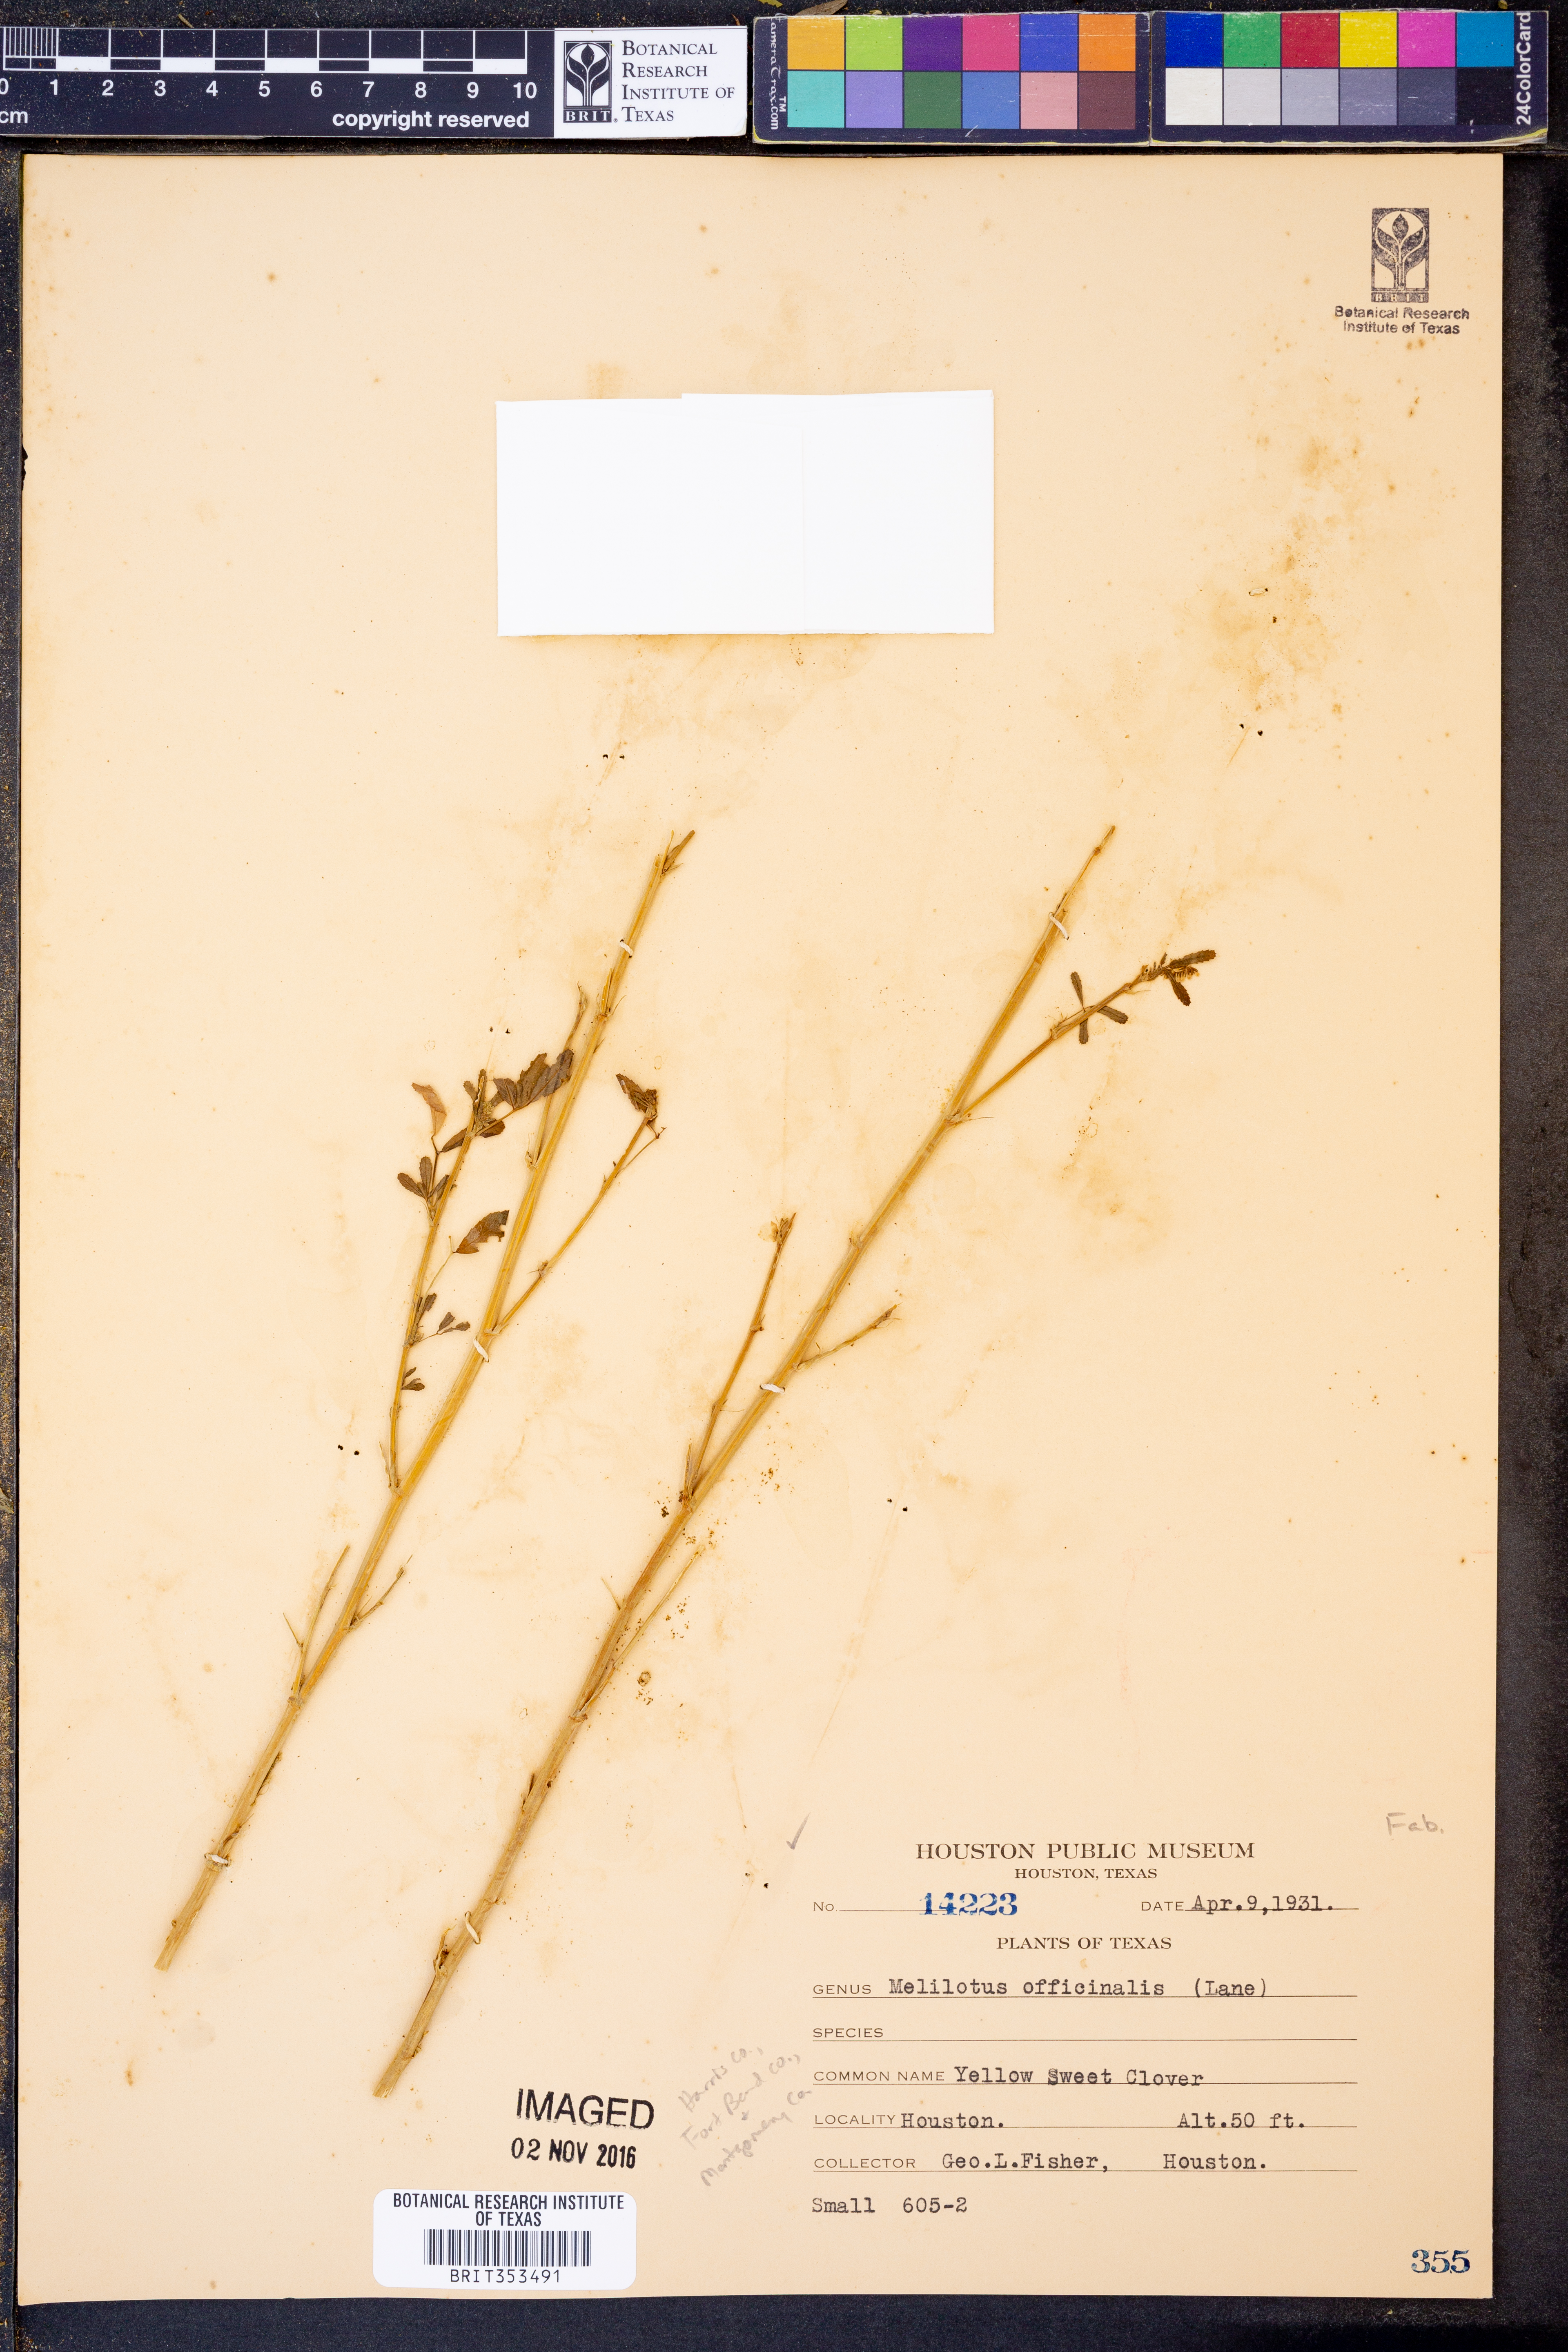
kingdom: Plantae
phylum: Tracheophyta
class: Magnoliopsida
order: Fabales
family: Fabaceae
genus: Melilotus
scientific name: Melilotus officinalis
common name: Sweetclover
